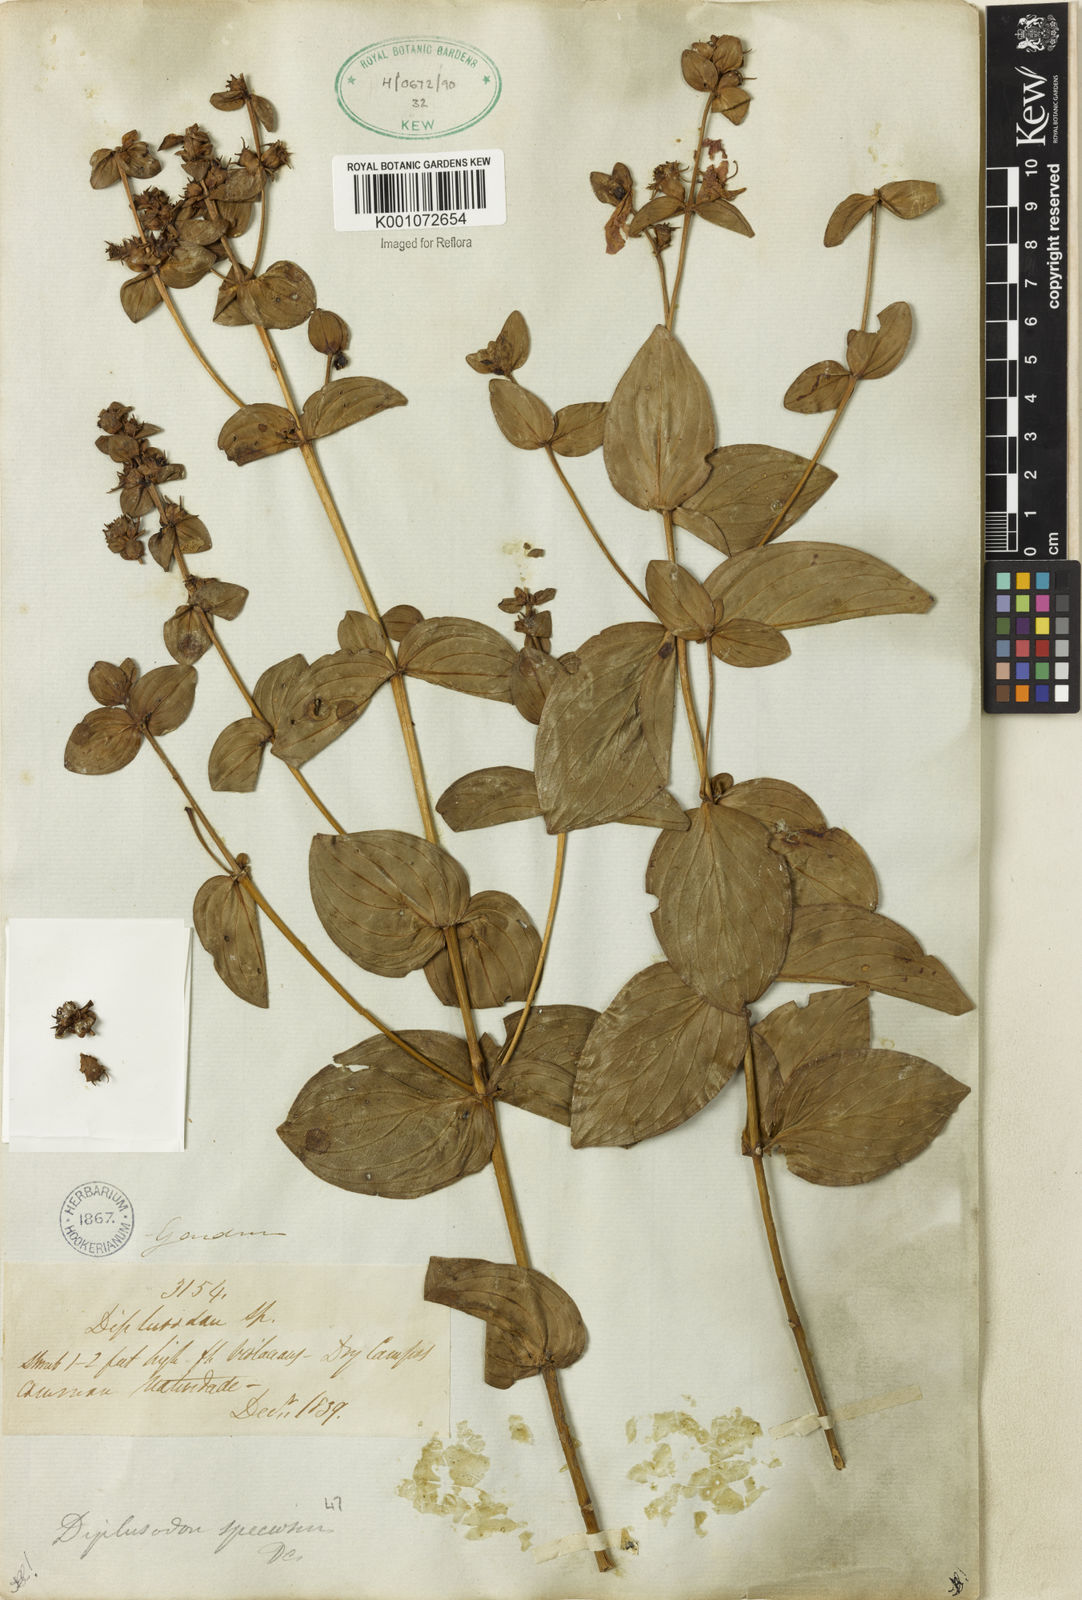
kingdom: Plantae
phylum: Tracheophyta
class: Magnoliopsida
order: Myrtales
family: Lythraceae
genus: Diplusodon
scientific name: Diplusodon speciosus
